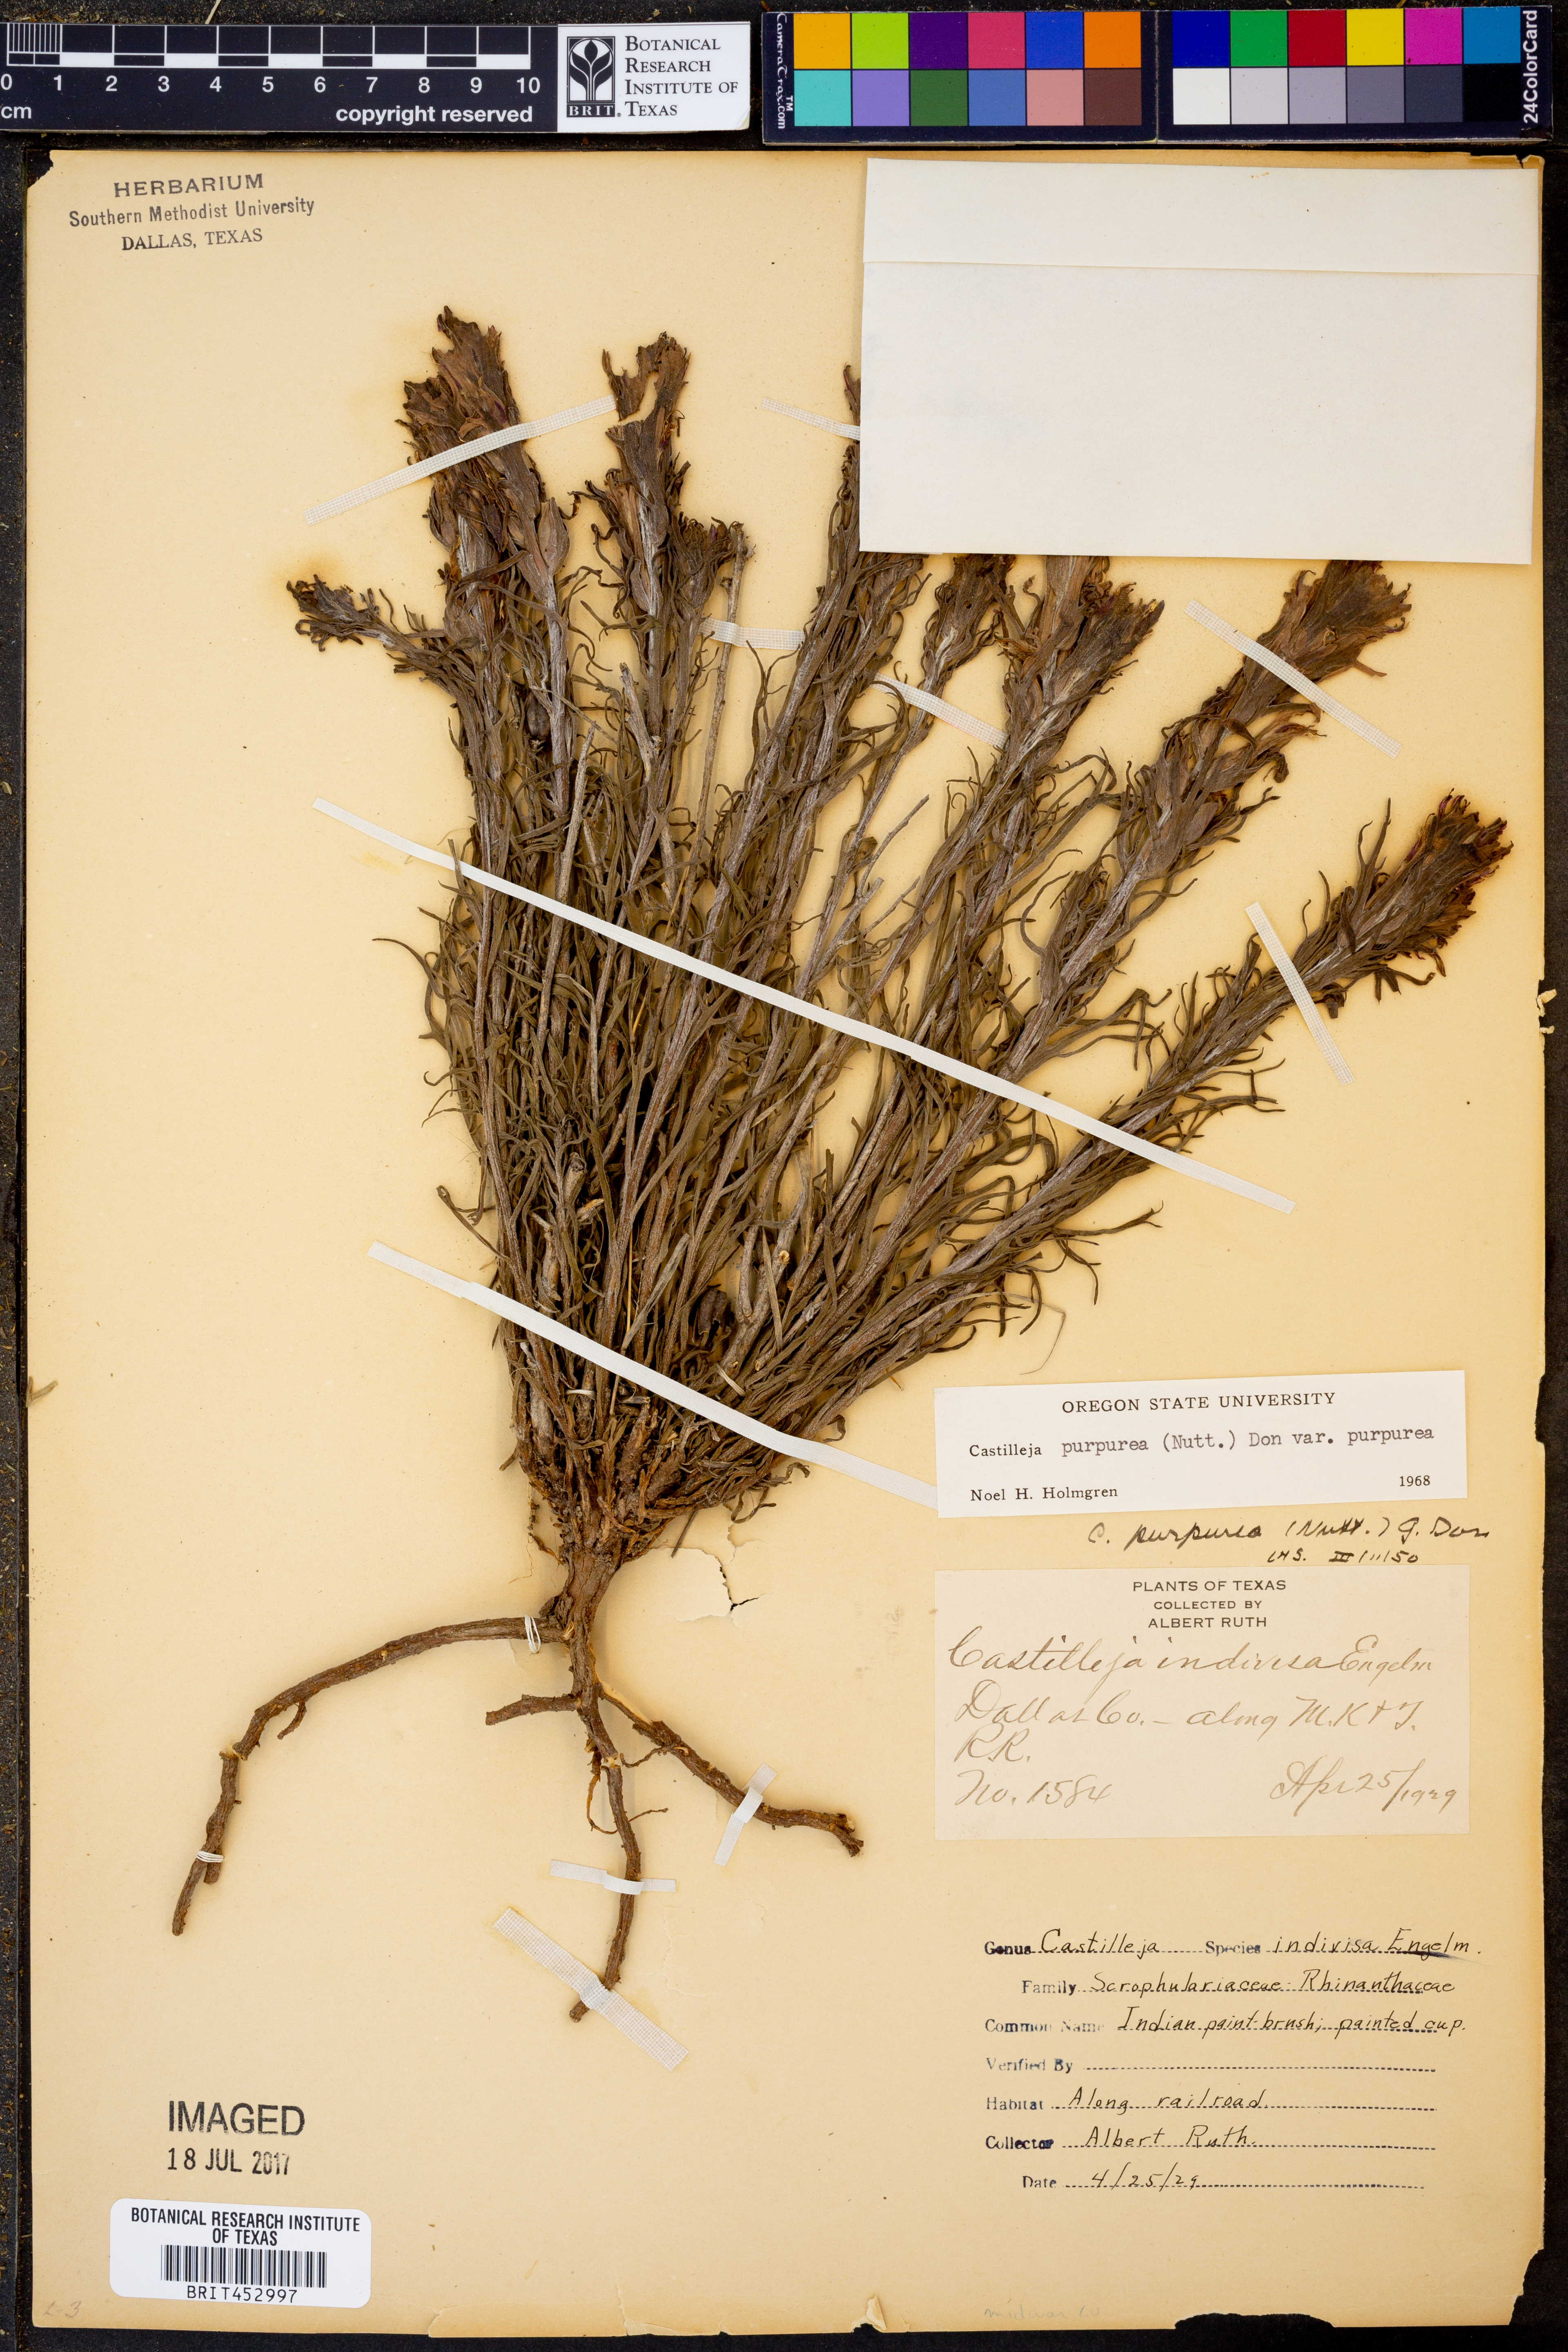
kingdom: Plantae
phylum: Tracheophyta
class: Magnoliopsida
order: Lamiales
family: Orobanchaceae
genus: Castilleja
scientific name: Castilleja purpurea
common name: Plains paintbrush
